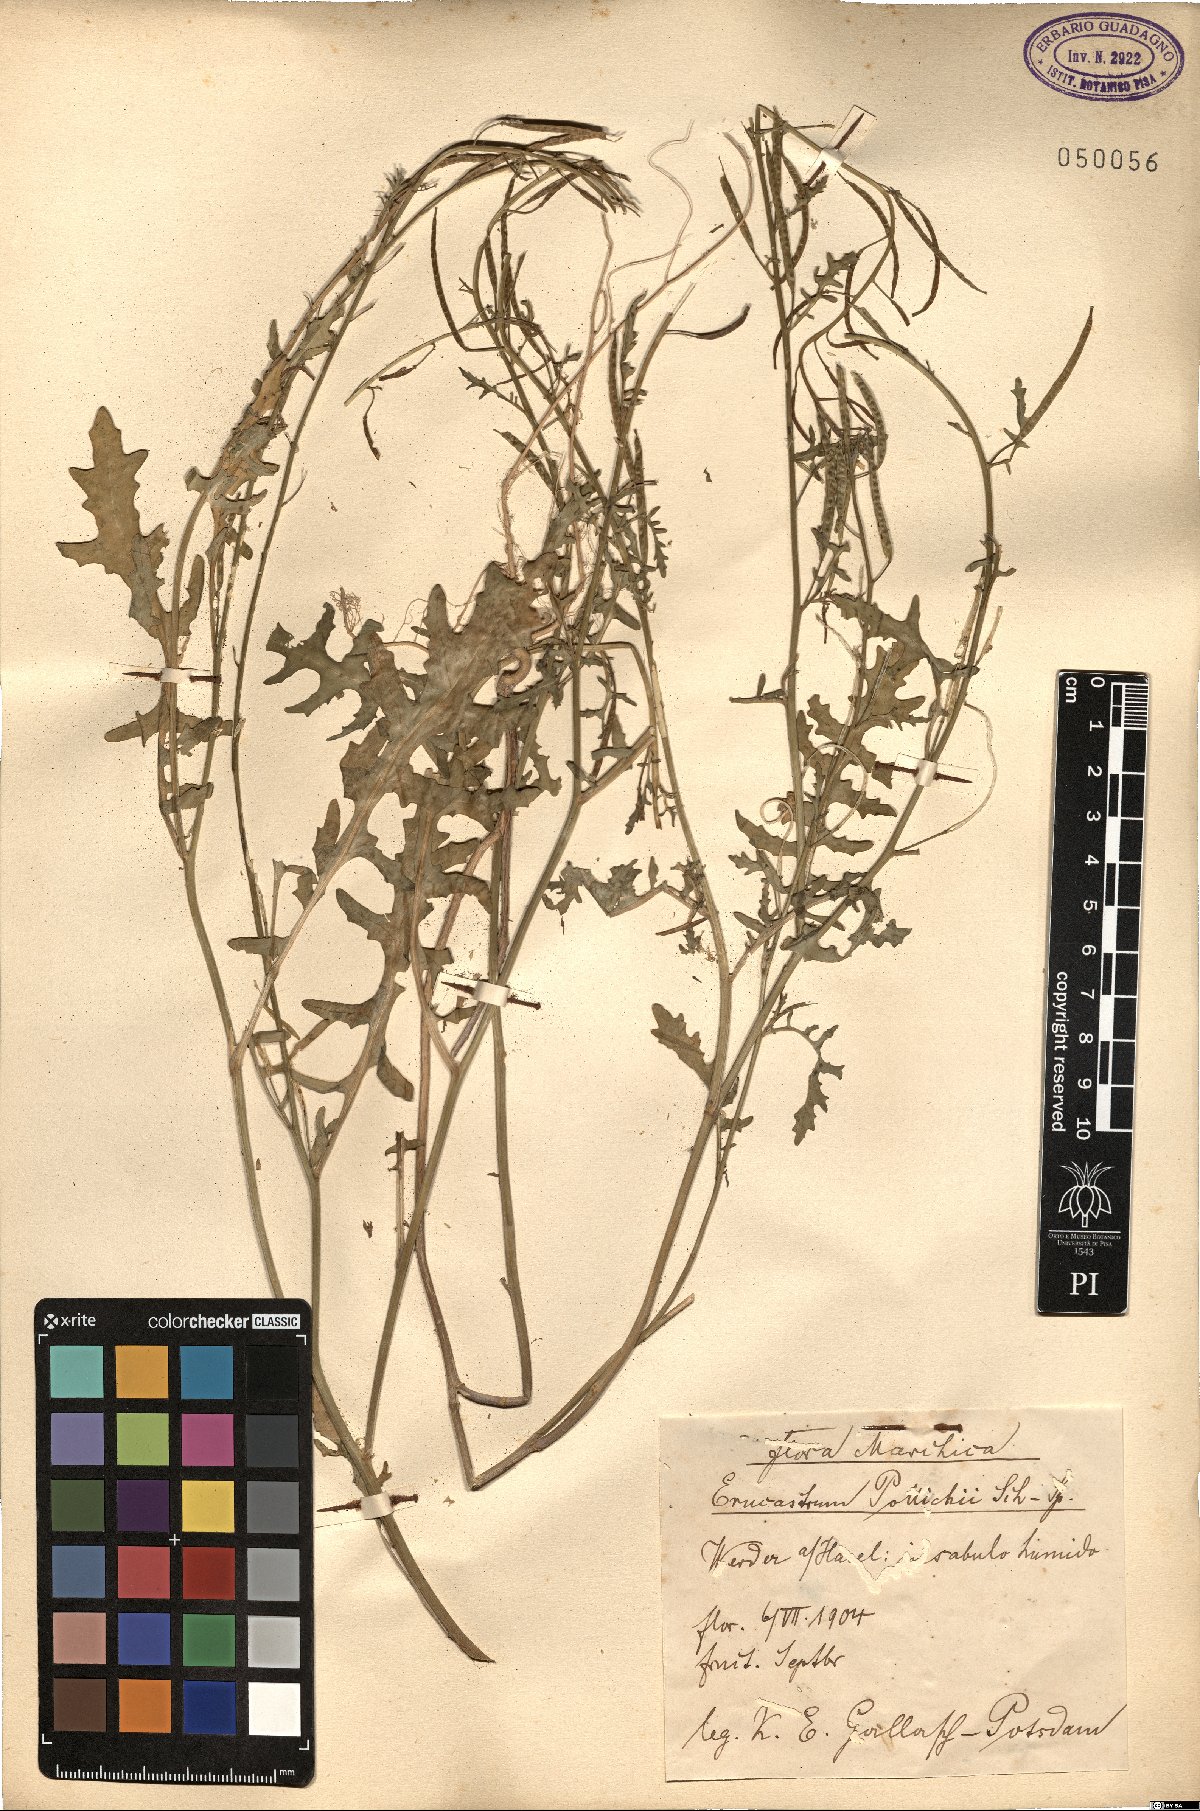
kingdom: Plantae
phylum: Tracheophyta
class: Magnoliopsida
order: Brassicales
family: Brassicaceae
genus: Erucastrum
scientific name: Erucastrum gallicum
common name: Hairy rocket
